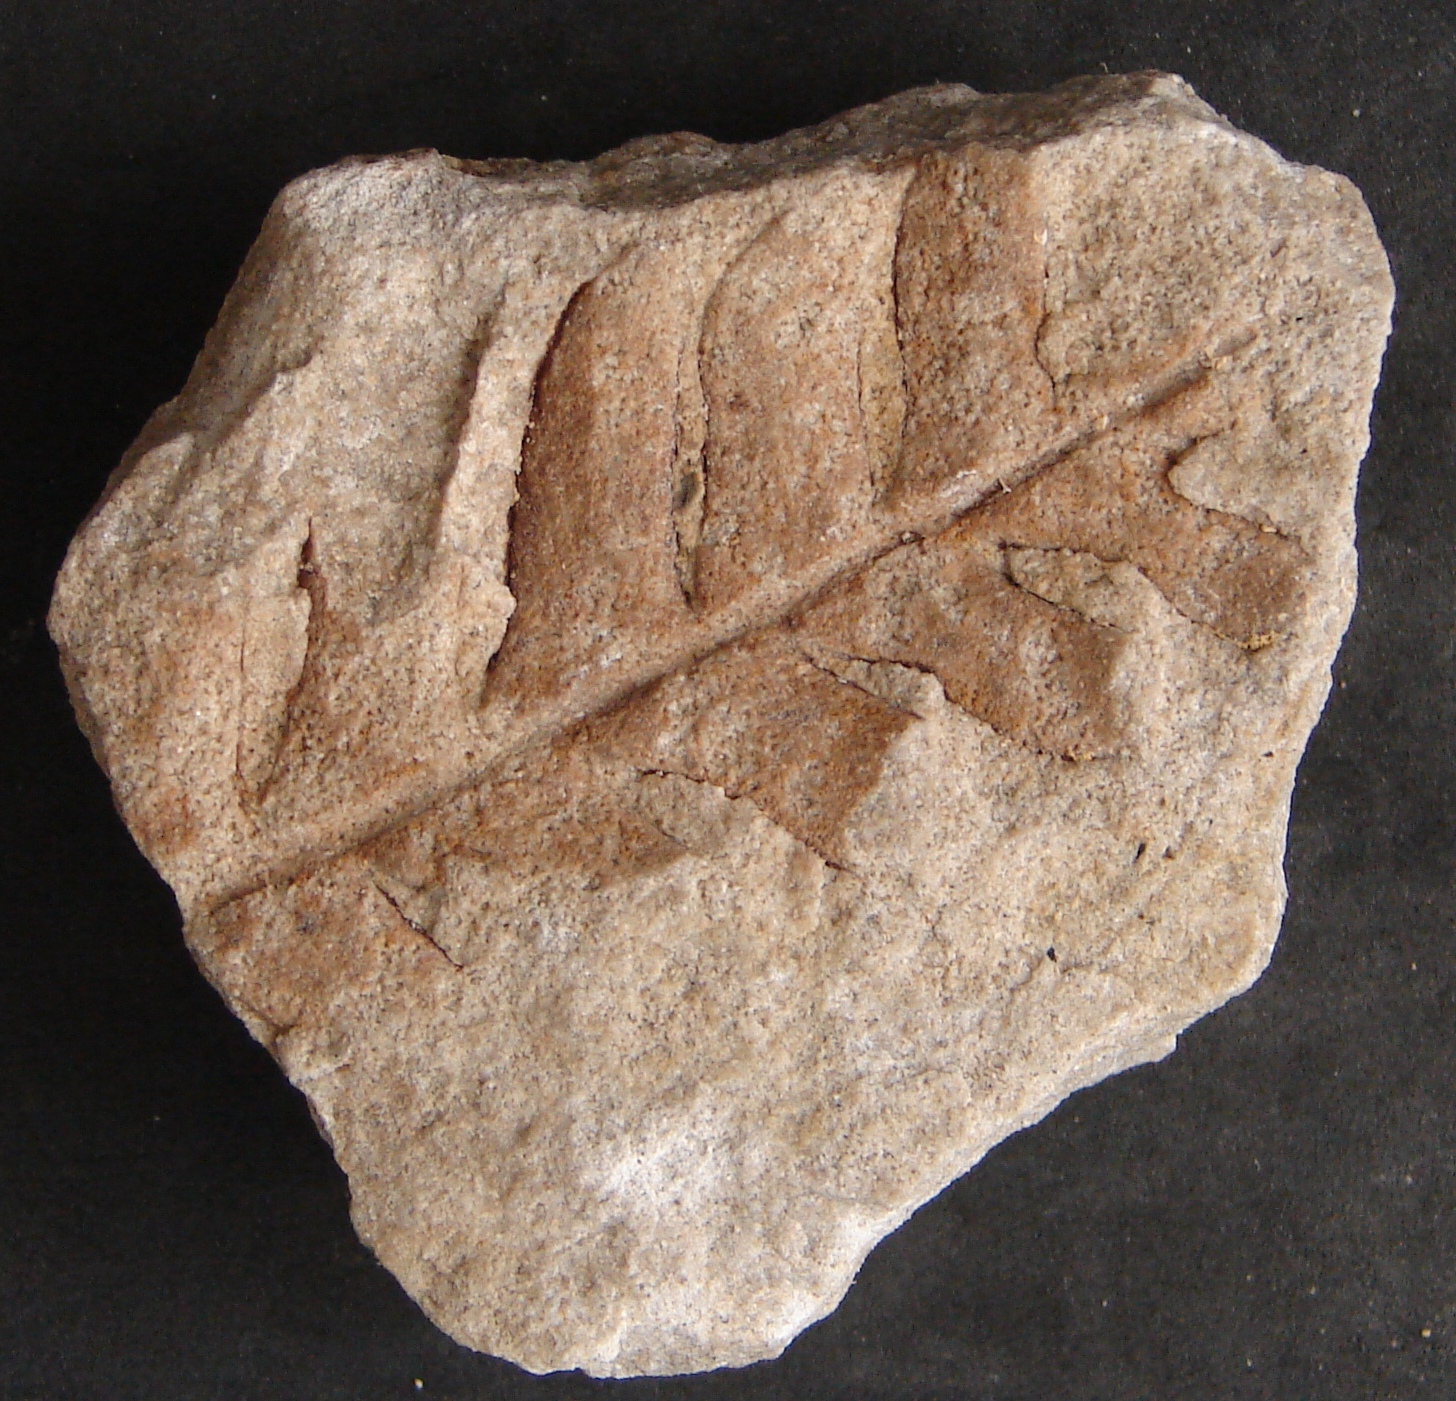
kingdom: Plantae
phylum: Tracheophyta
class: Polypodiopsida
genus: Diplodictyum
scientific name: Diplodictyum
